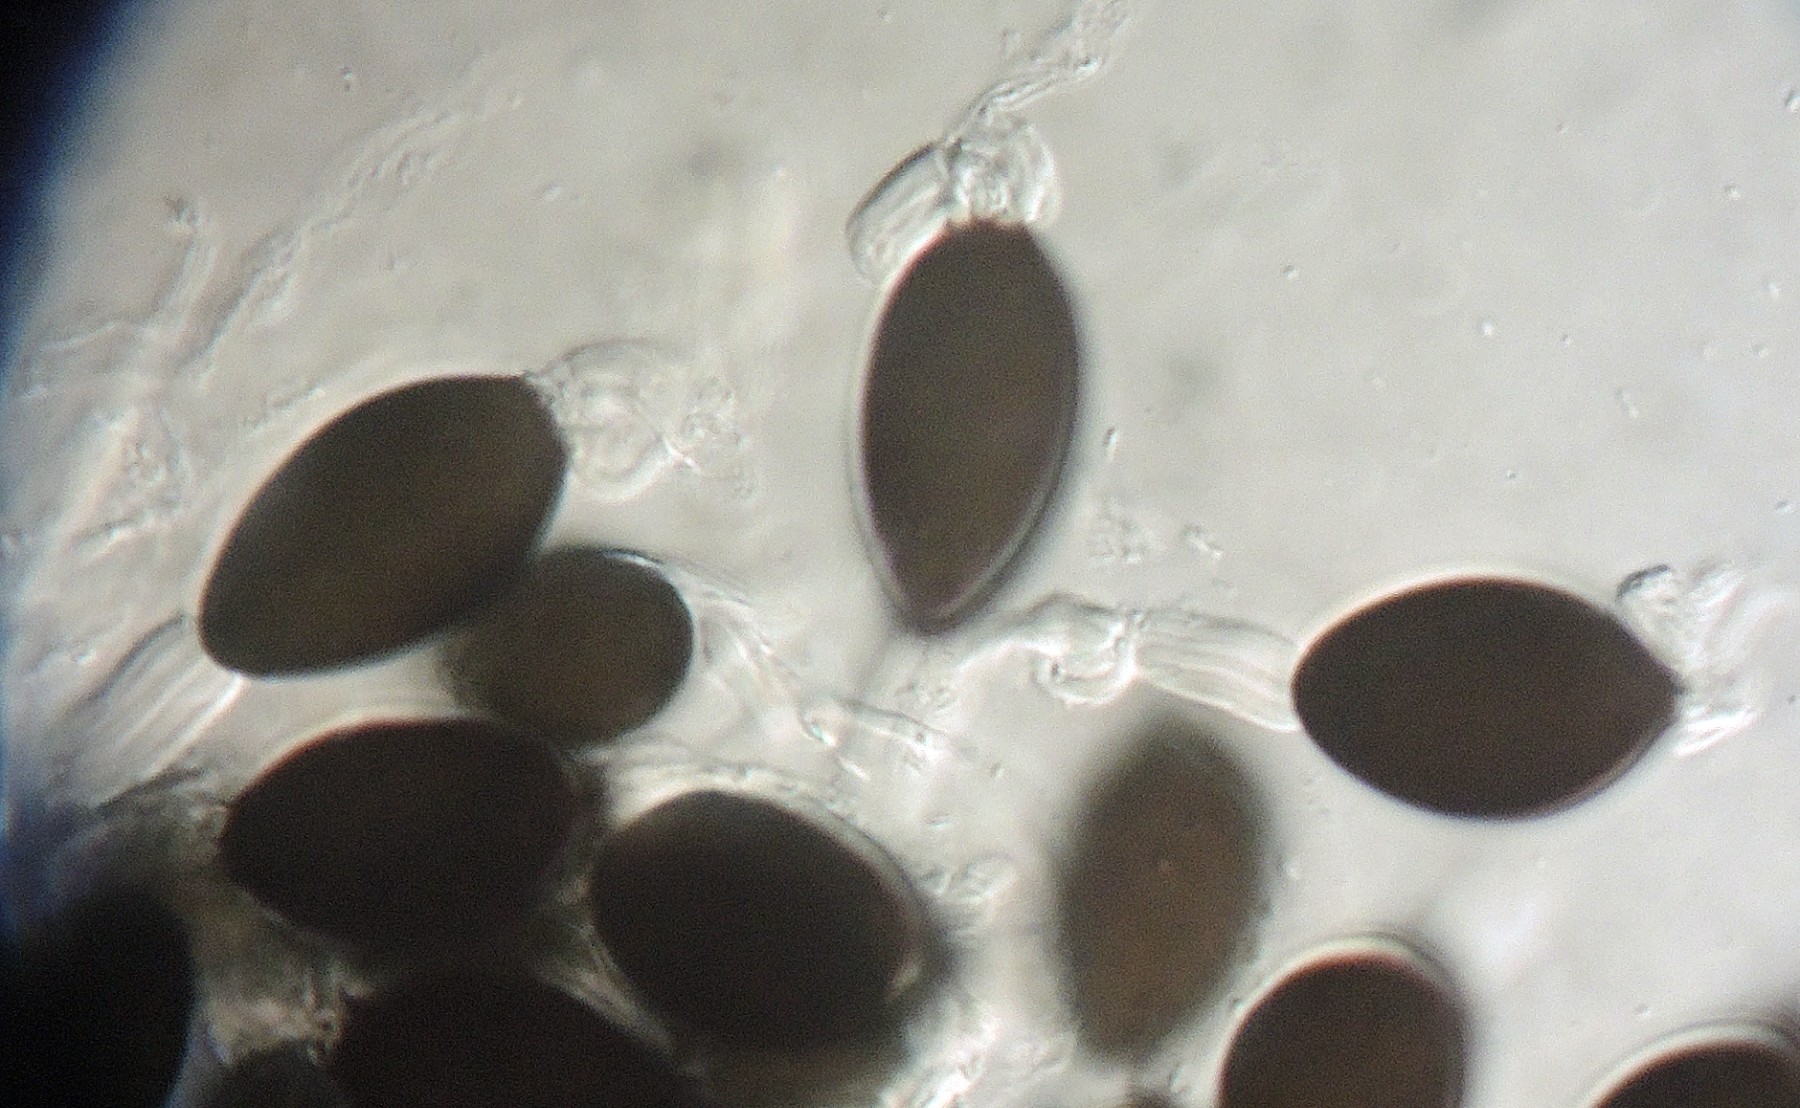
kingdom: Fungi
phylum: Ascomycota
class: Sordariomycetes
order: Sordariales
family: Naviculisporaceae
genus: Rhypophila
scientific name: Rhypophila pleiospora
